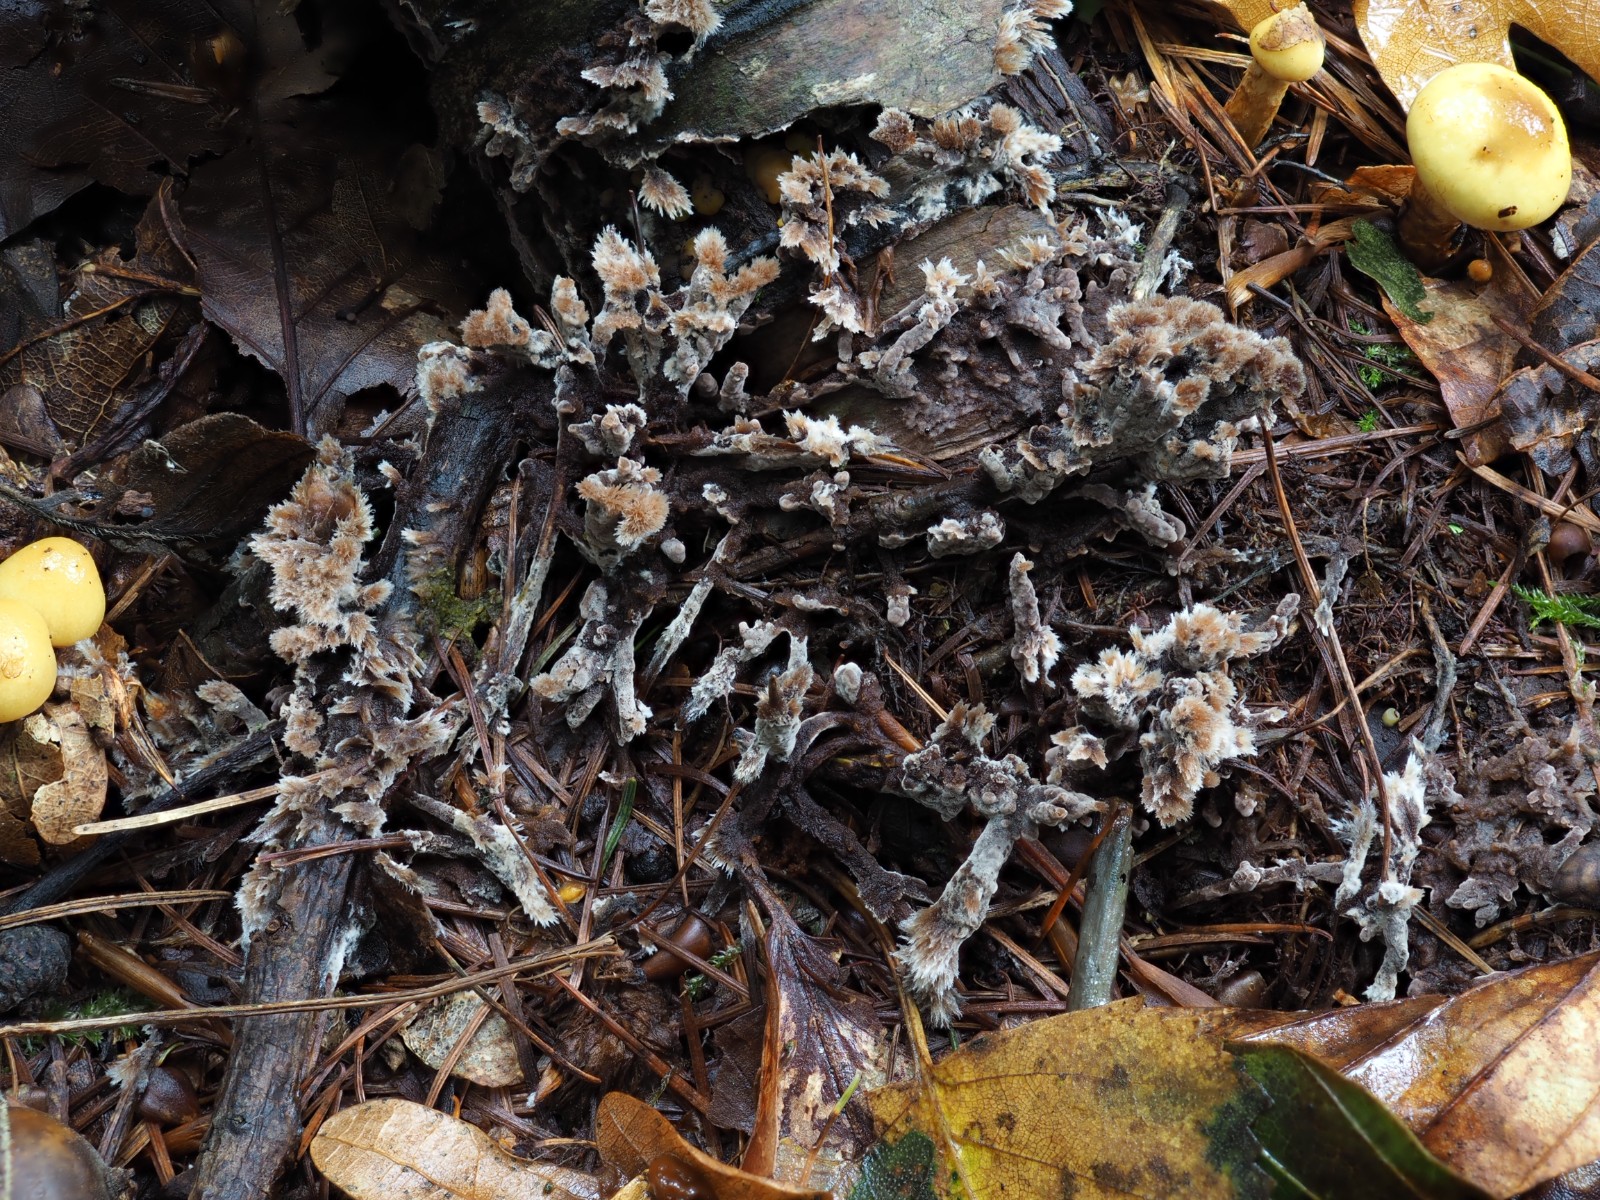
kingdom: Fungi
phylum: Basidiomycota
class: Agaricomycetes
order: Thelephorales
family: Thelephoraceae
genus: Thelephora
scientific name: Thelephora penicillata
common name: fladtrådt frynsesvamp
